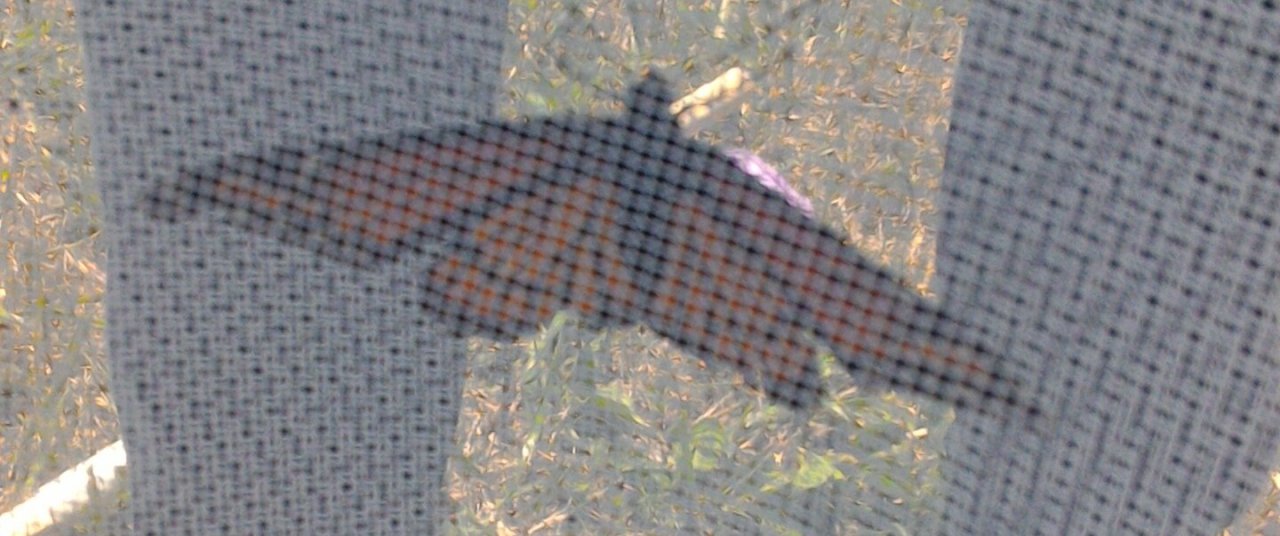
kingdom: Animalia
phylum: Arthropoda
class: Insecta
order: Lepidoptera
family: Nymphalidae
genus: Limenitis
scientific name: Limenitis archippus
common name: Viceroy
